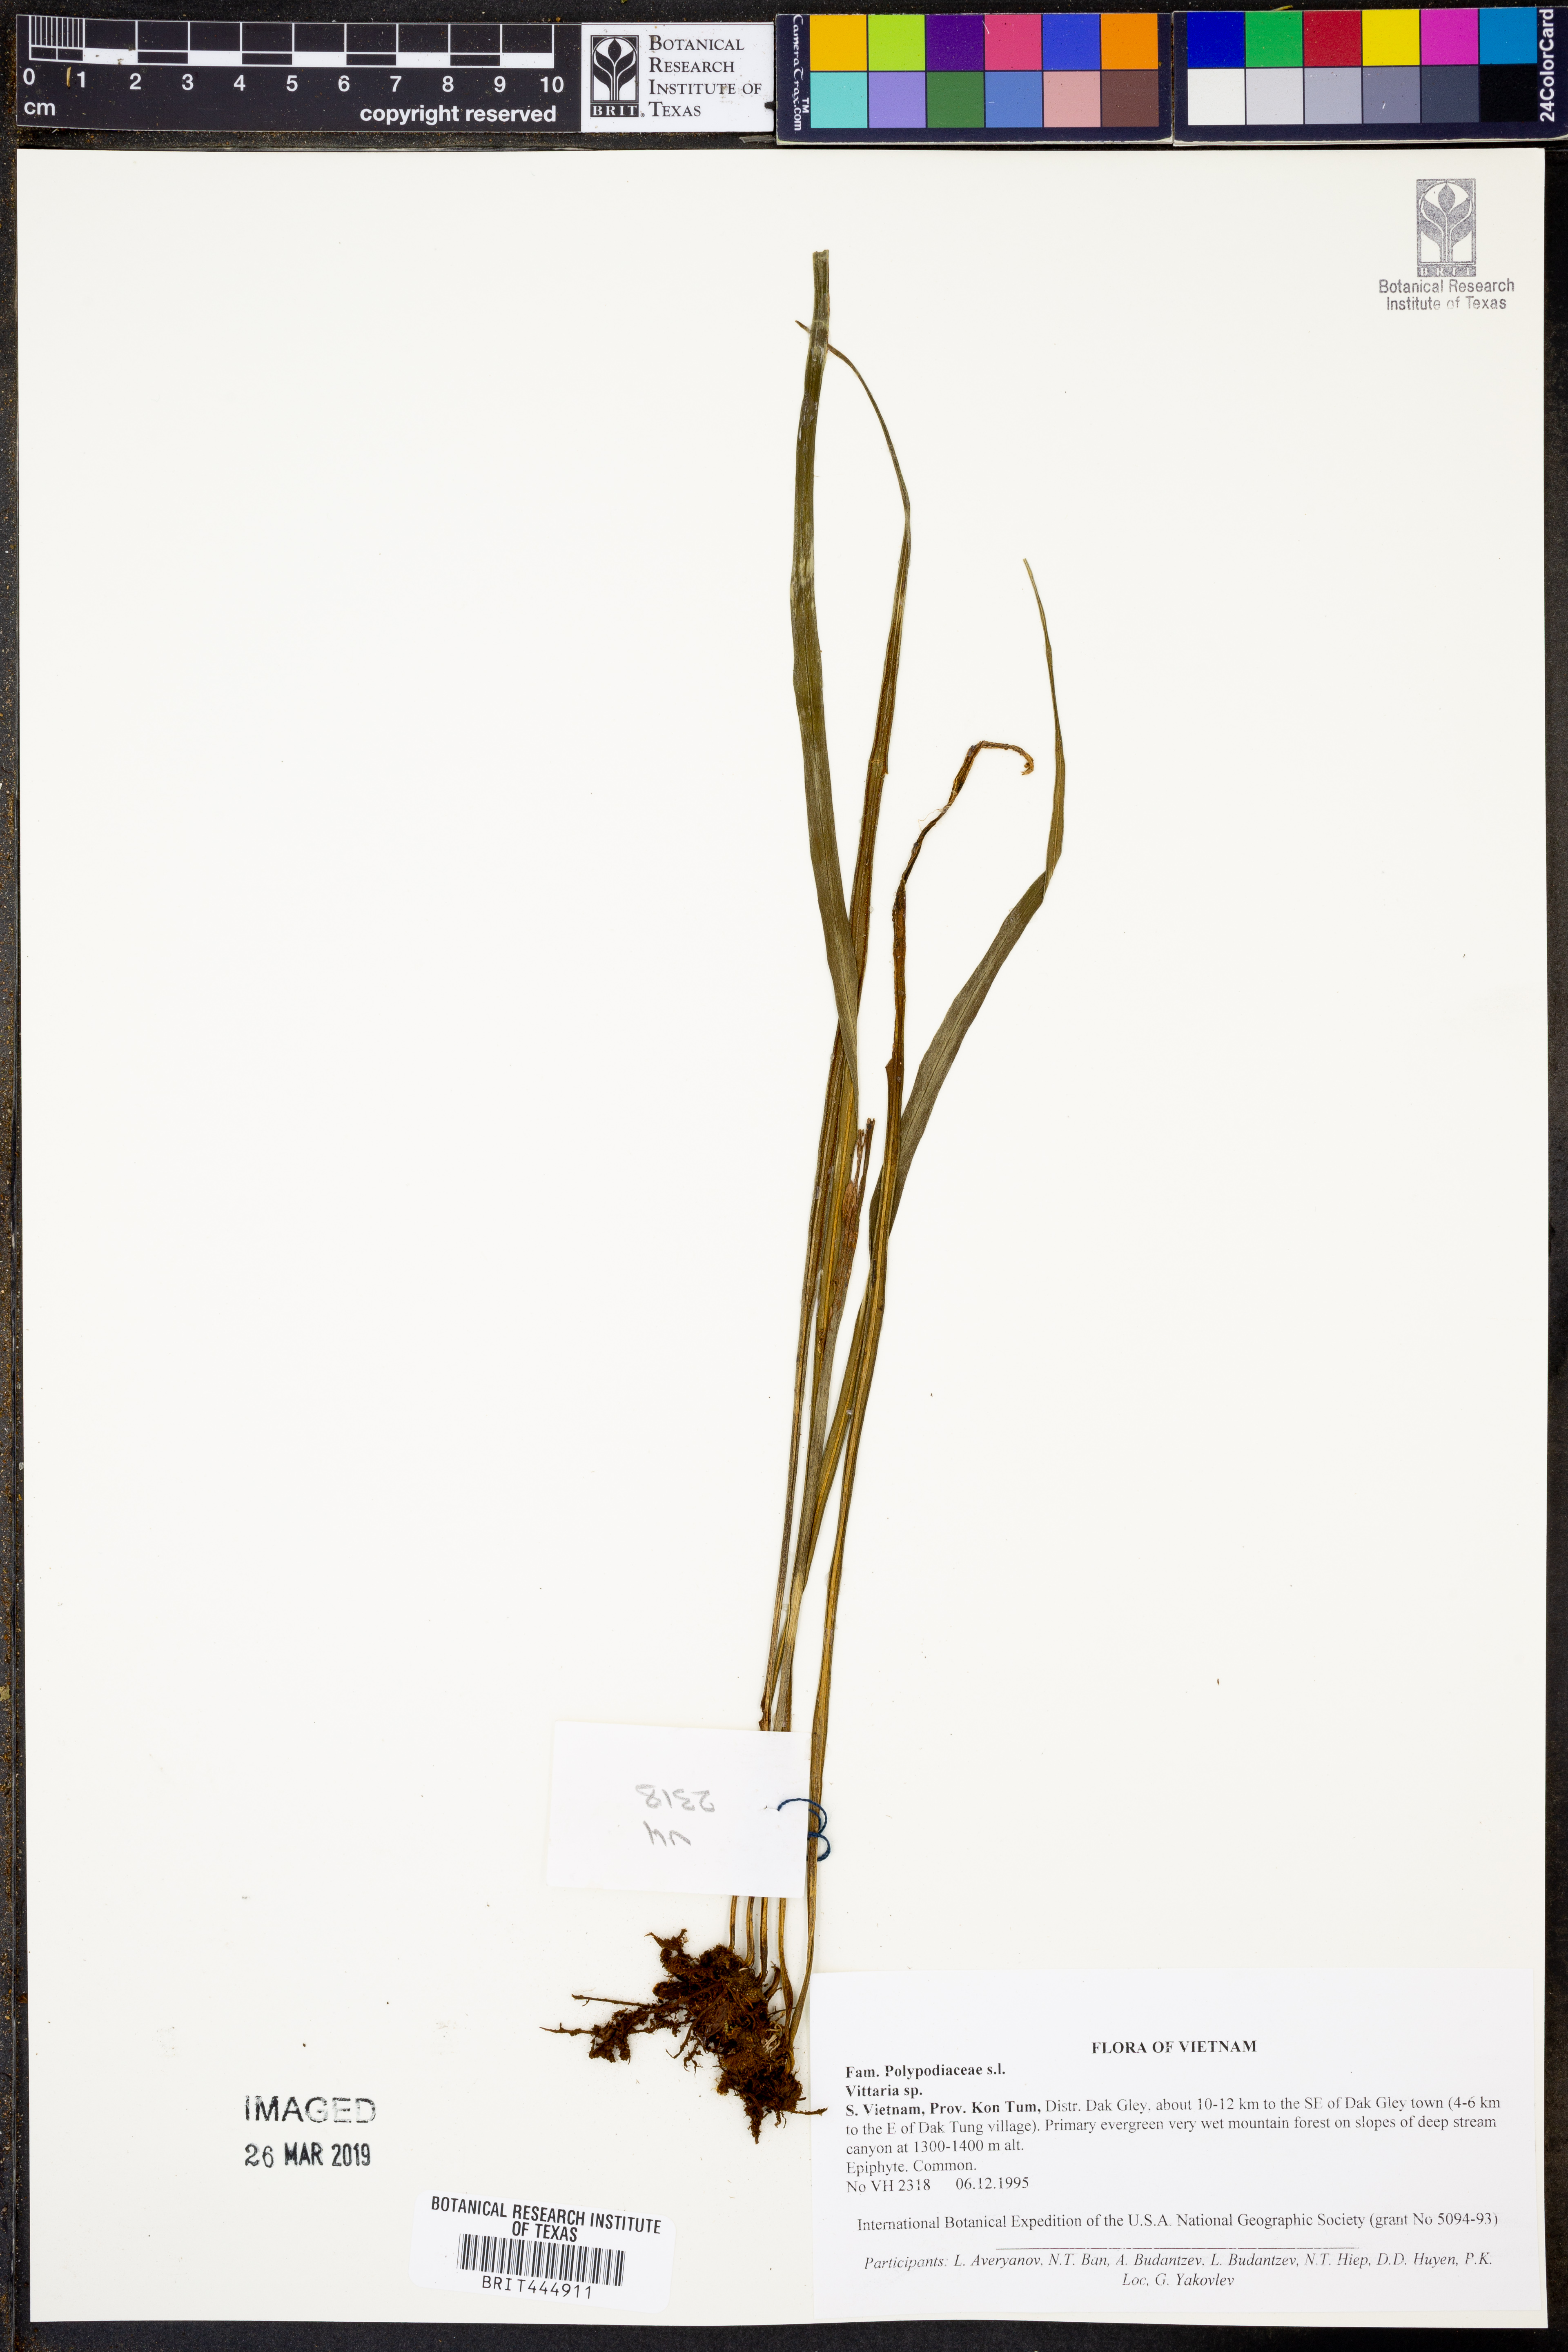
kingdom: Plantae
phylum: Tracheophyta
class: Polypodiopsida
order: Polypodiales
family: Pteridaceae
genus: Vittaria
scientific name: Vittaria
